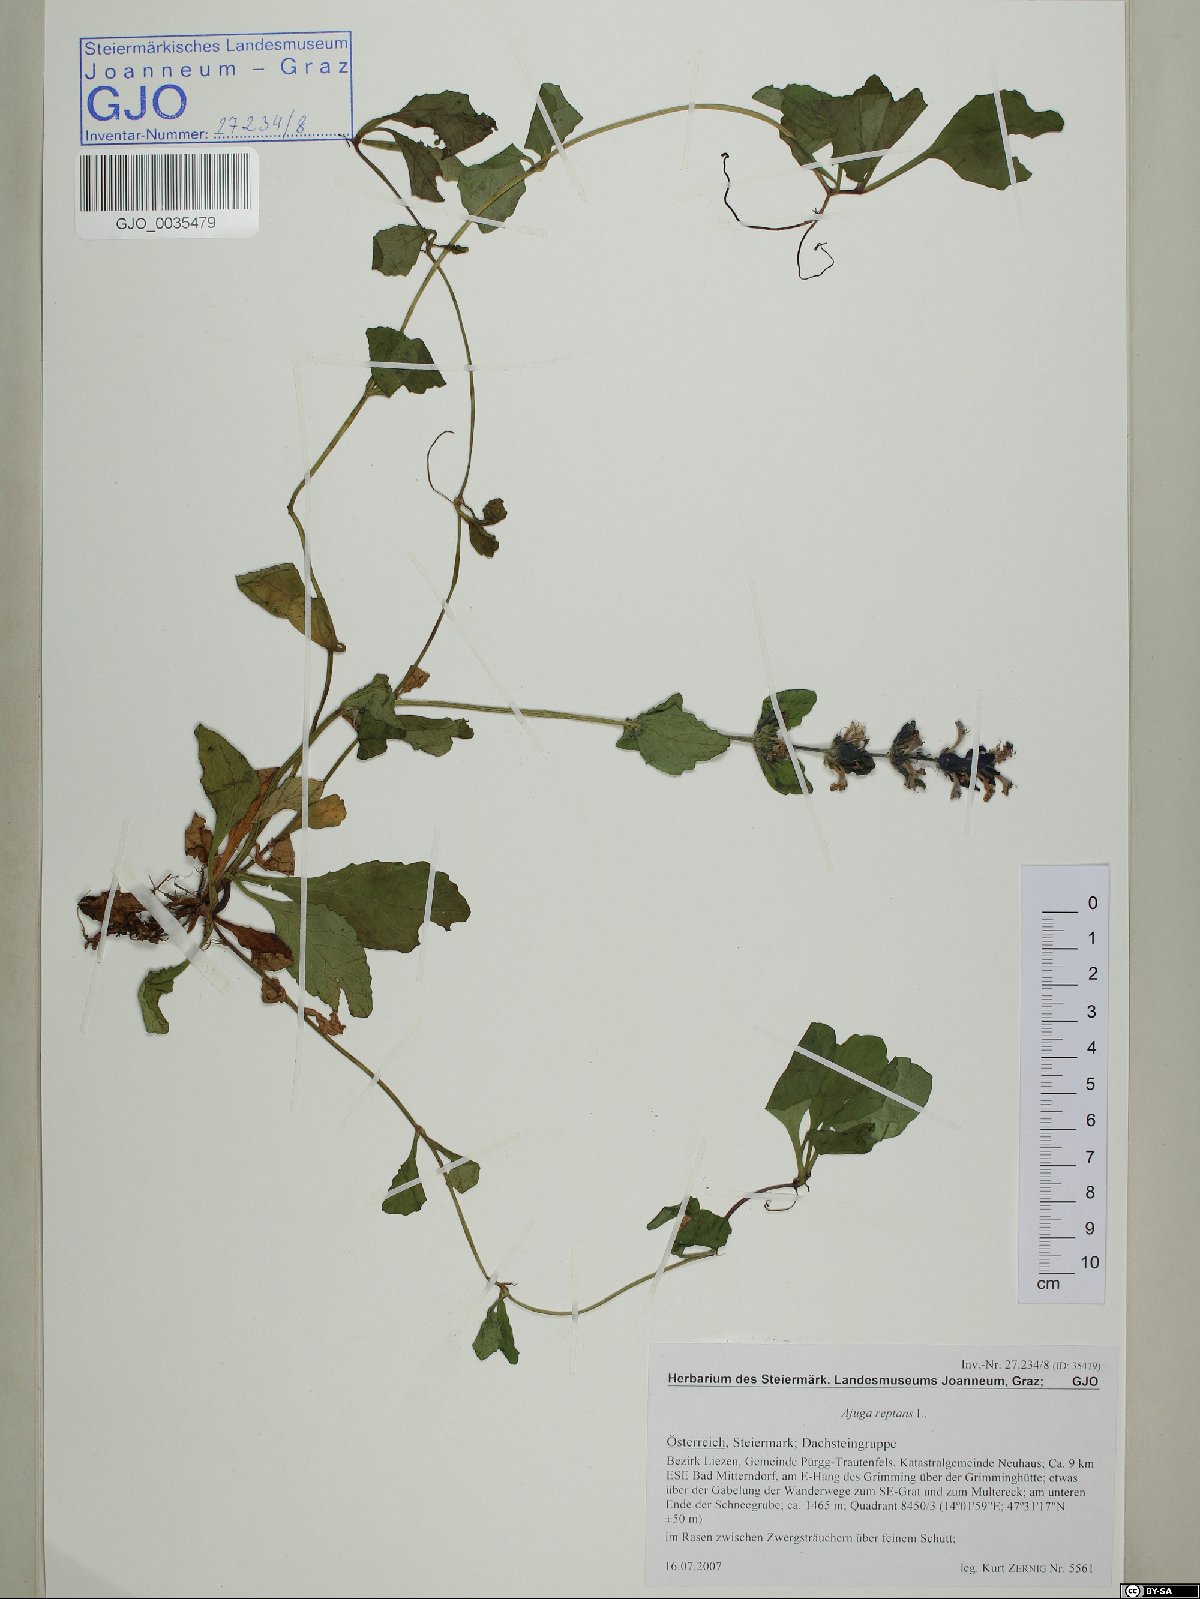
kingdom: Plantae
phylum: Tracheophyta
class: Magnoliopsida
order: Lamiales
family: Lamiaceae
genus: Ajuga
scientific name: Ajuga reptans
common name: Bugle
